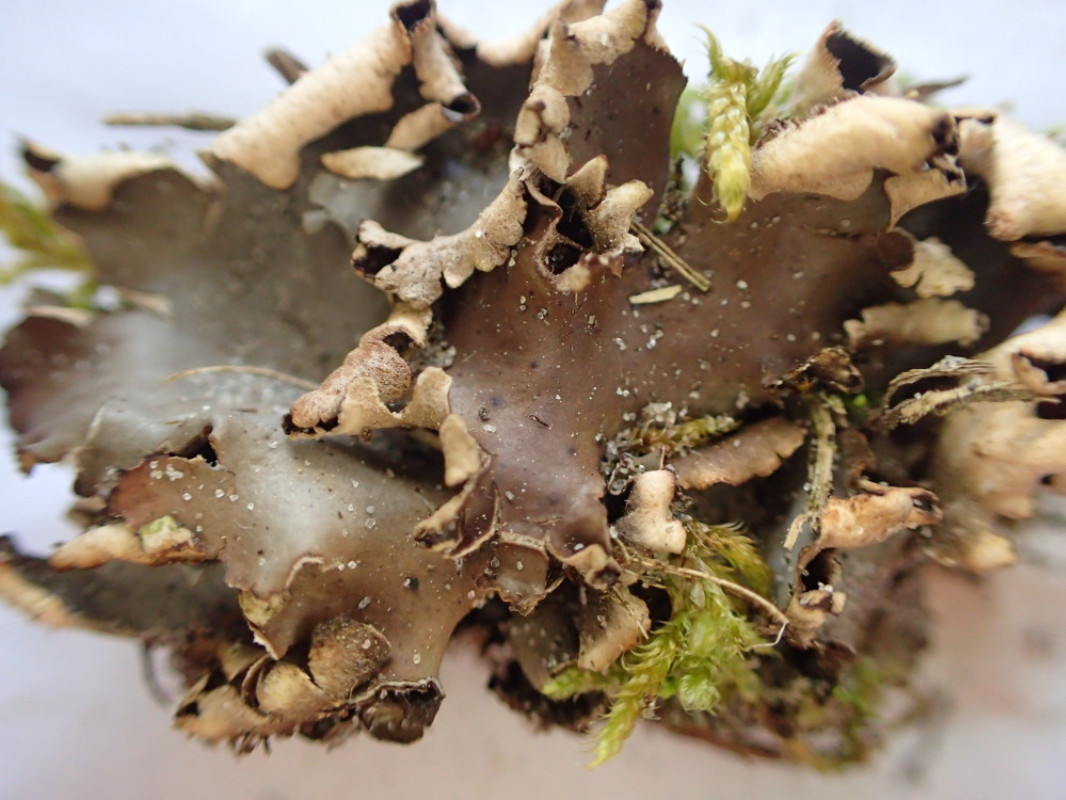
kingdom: Fungi
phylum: Ascomycota
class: Lecanoromycetes
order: Peltigerales
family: Peltigeraceae
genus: Peltigera
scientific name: Peltigera
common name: skjoldlav
